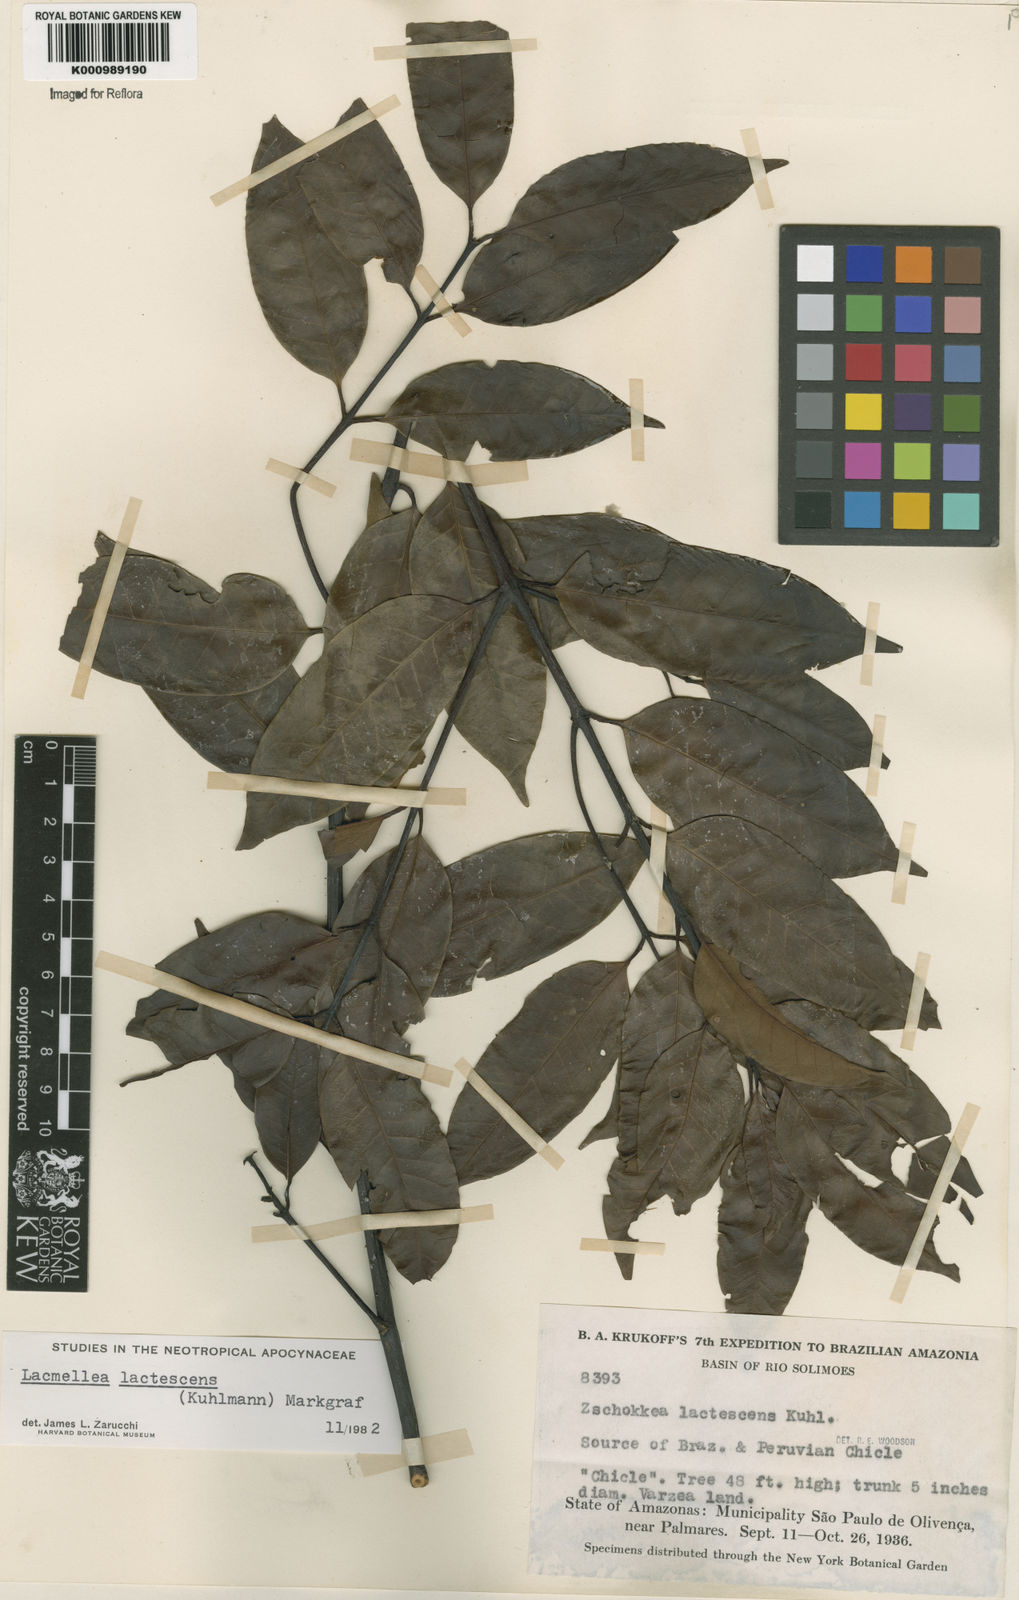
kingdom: Plantae
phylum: Tracheophyta
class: Magnoliopsida
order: Gentianales
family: Apocynaceae
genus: Lacmellea
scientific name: Lacmellea
